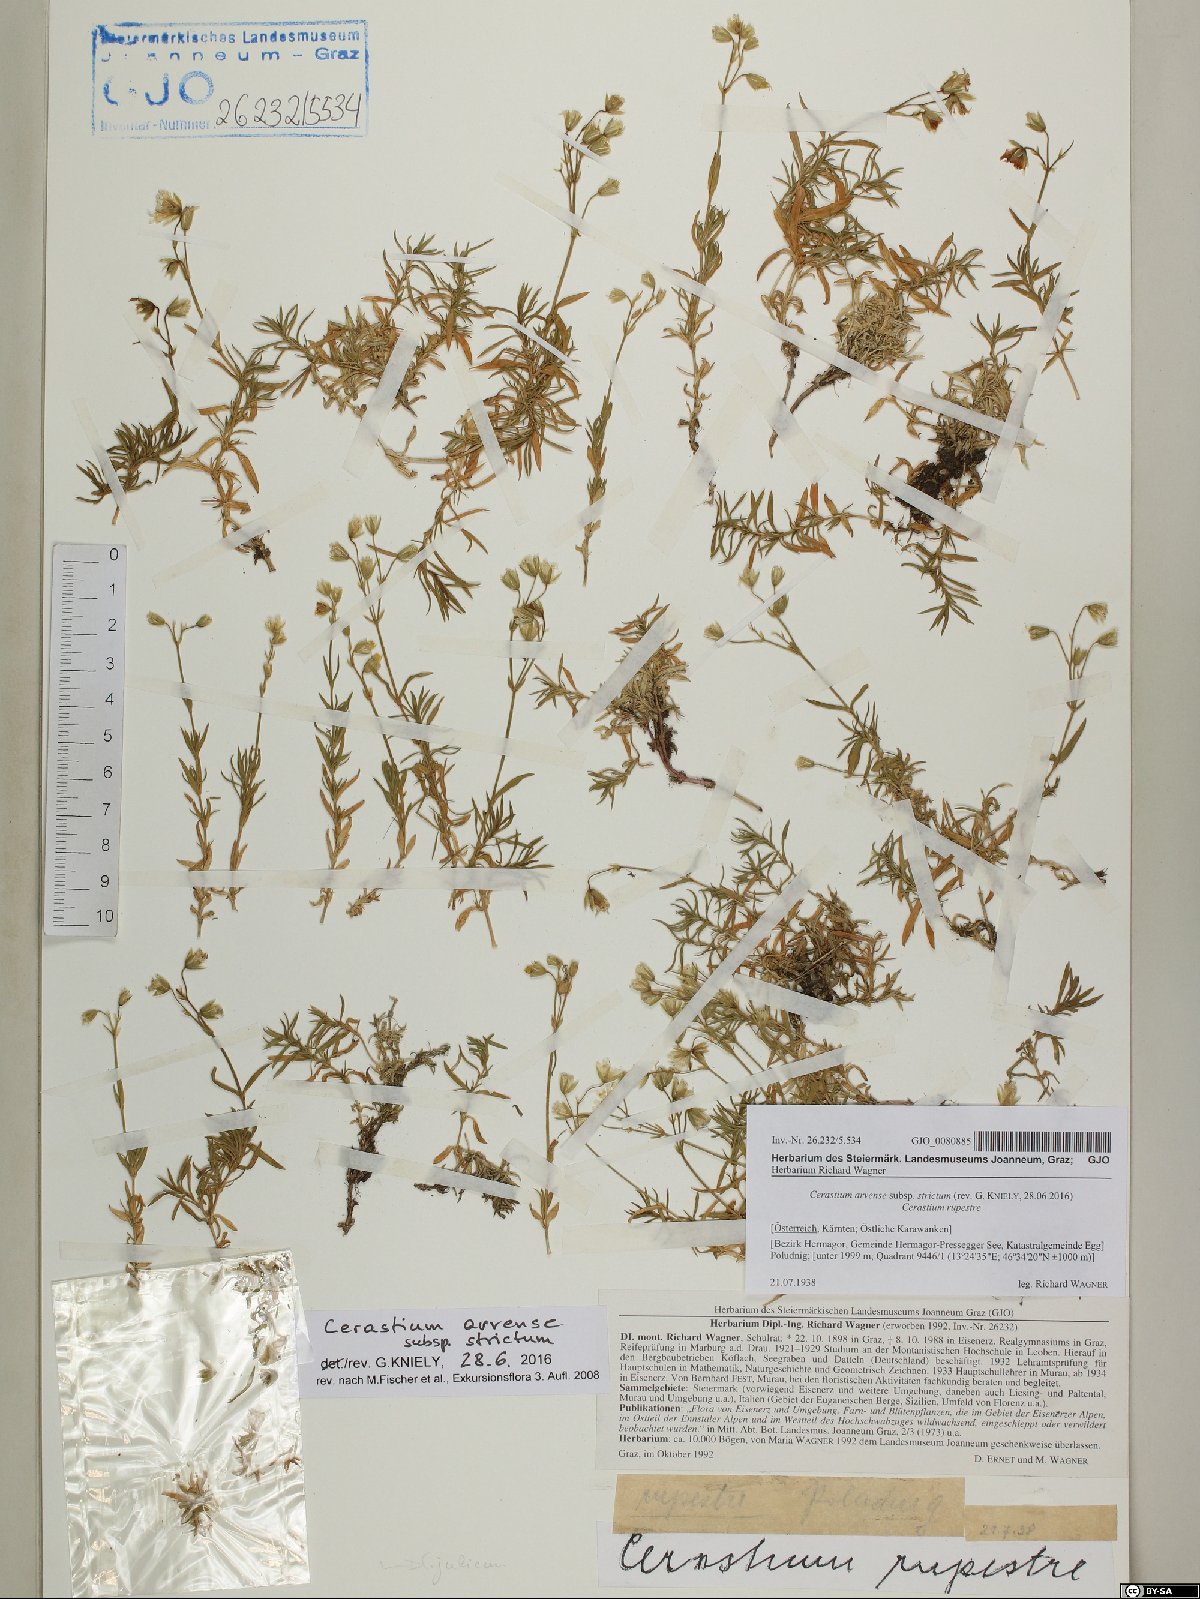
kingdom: Plantae
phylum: Tracheophyta
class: Magnoliopsida
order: Caryophyllales
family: Caryophyllaceae
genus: Cerastium
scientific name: Cerastium elongatum
